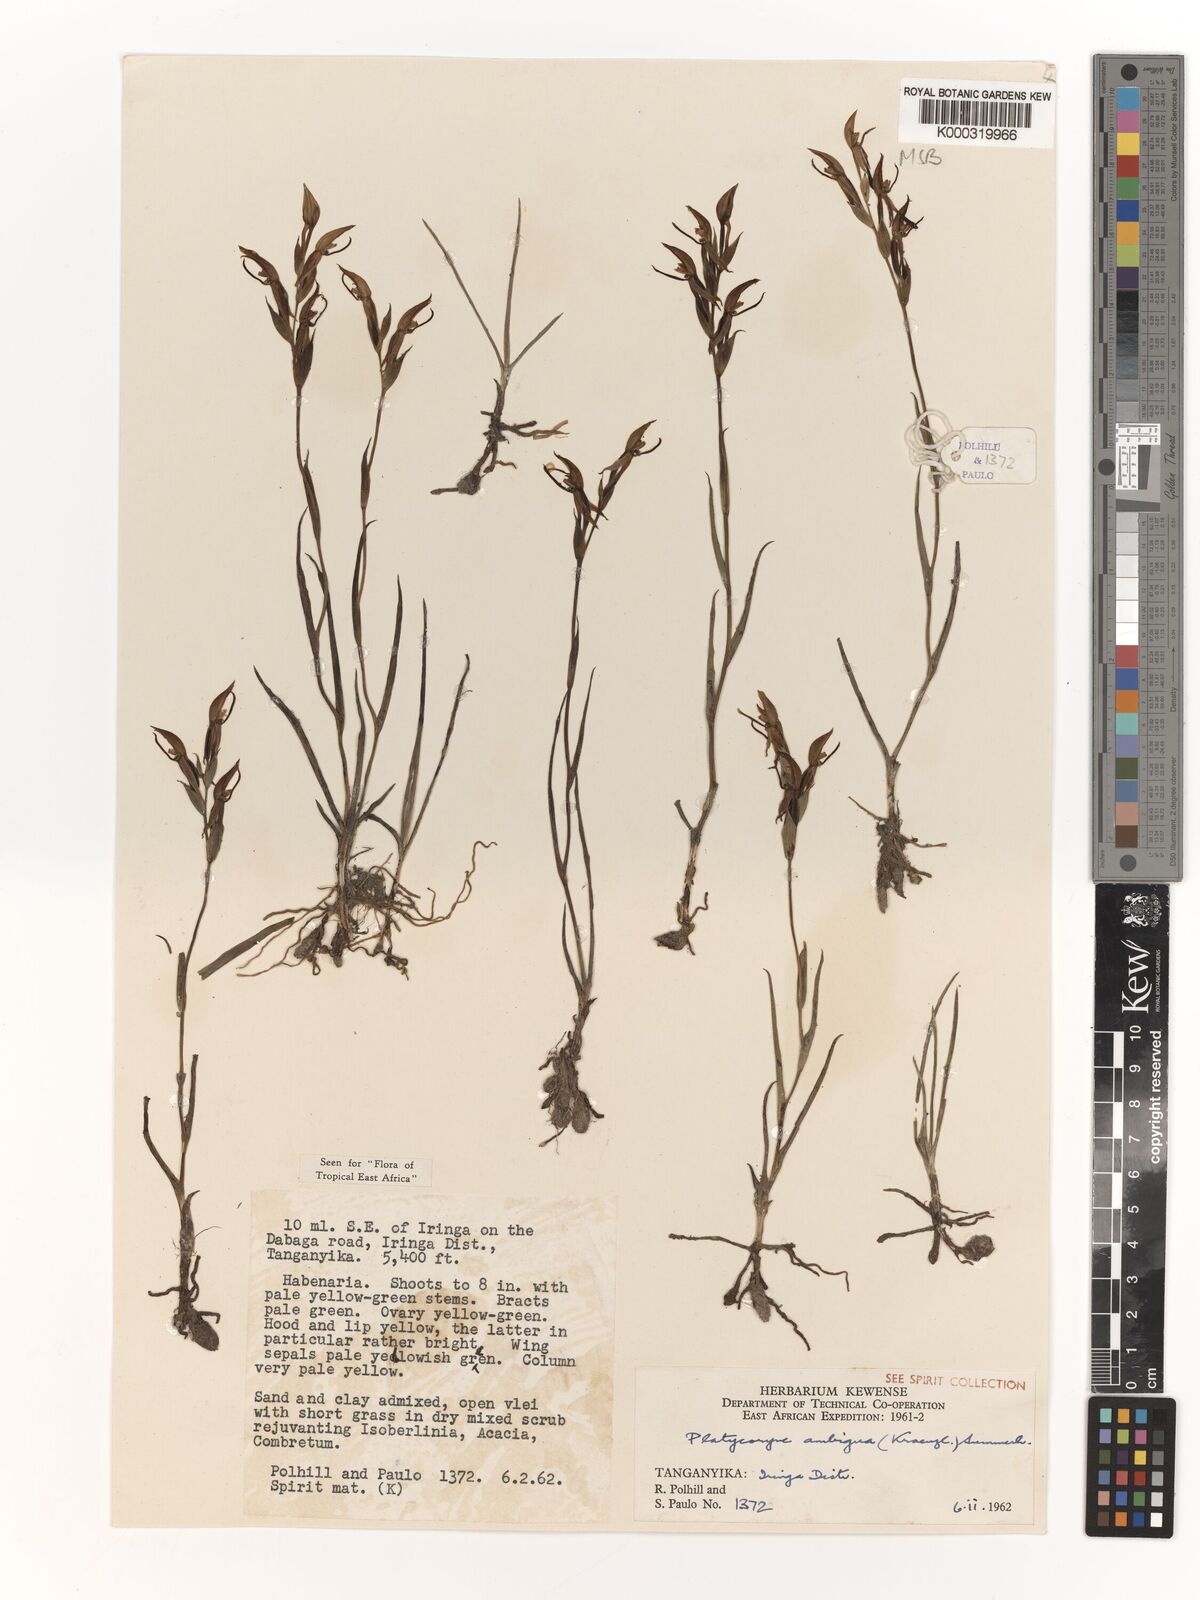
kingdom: Plantae
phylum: Tracheophyta
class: Liliopsida
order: Asparagales
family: Orchidaceae
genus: Platycoryne
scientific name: Platycoryne ambigua
